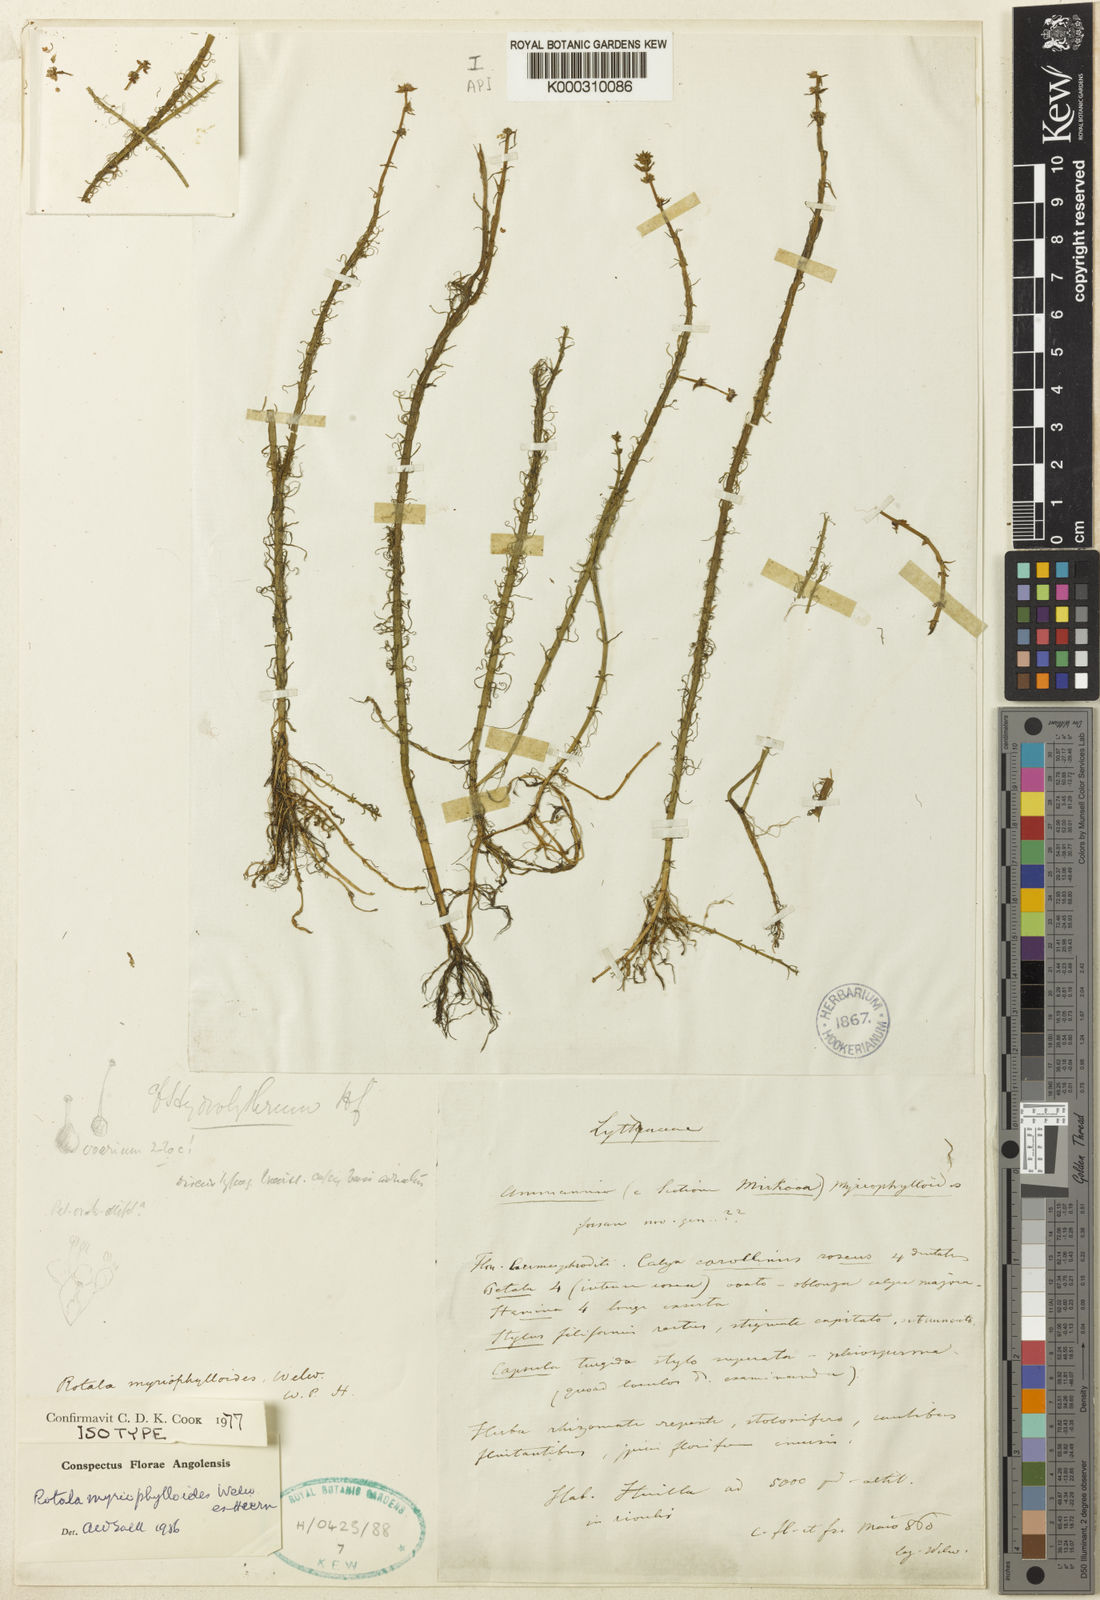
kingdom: Plantae
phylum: Tracheophyta
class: Magnoliopsida
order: Myrtales
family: Lythraceae
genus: Rotala
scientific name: Rotala myriophylloides
